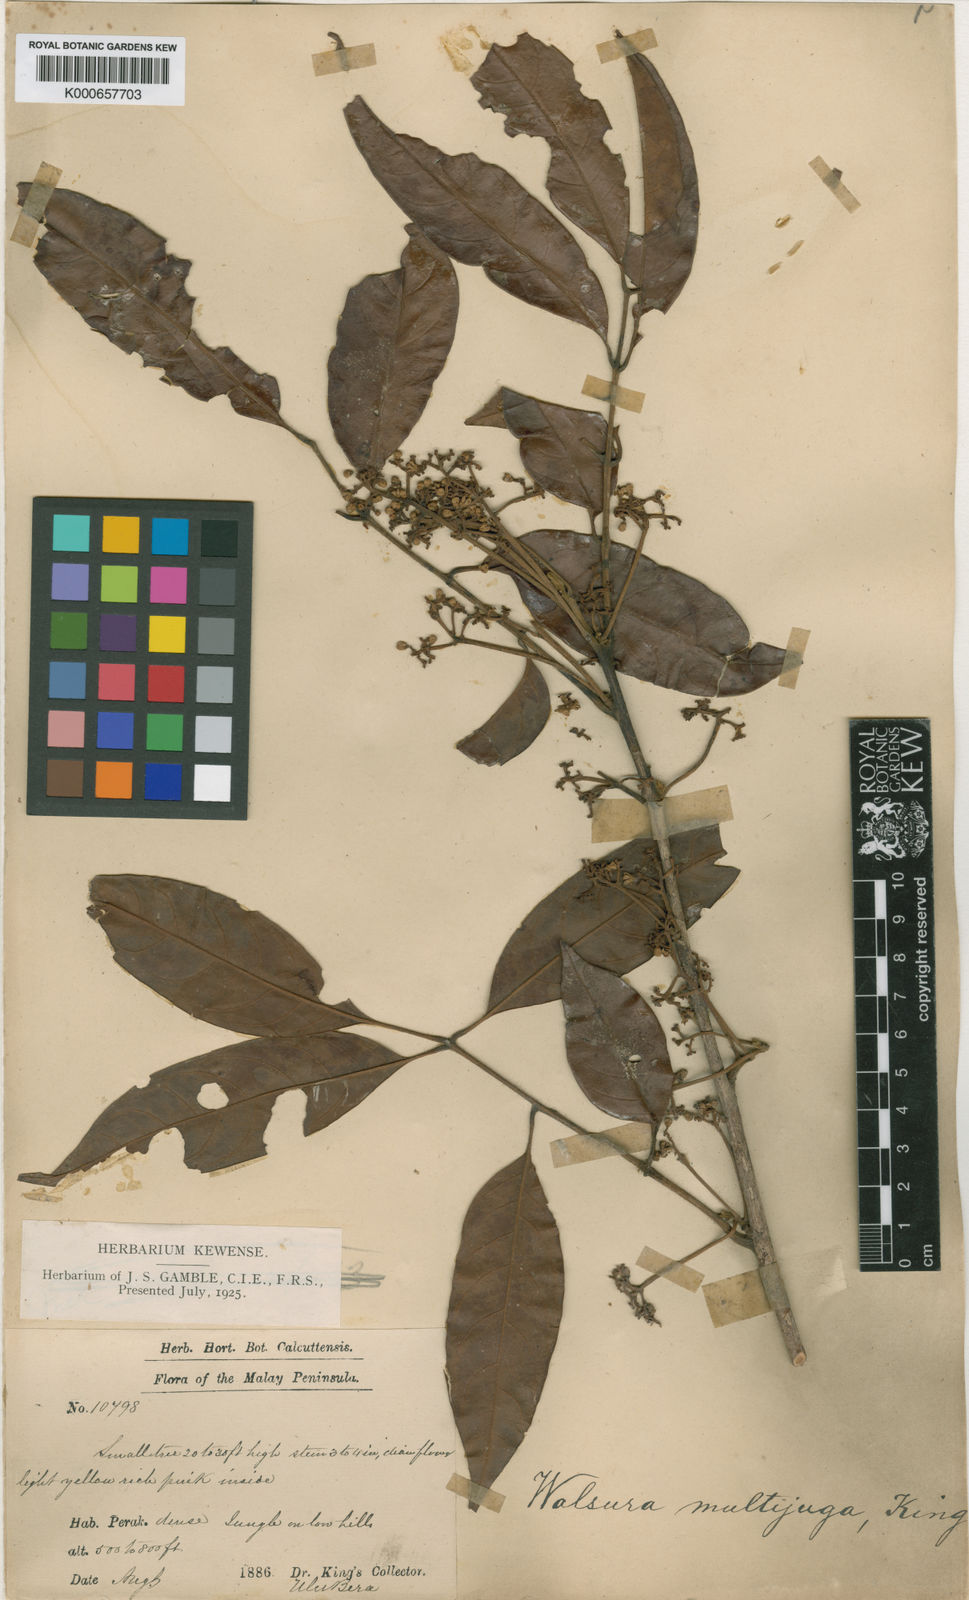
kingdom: Plantae
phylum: Tracheophyta
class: Magnoliopsida
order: Sapindales
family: Meliaceae
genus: Walsura
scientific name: Walsura
